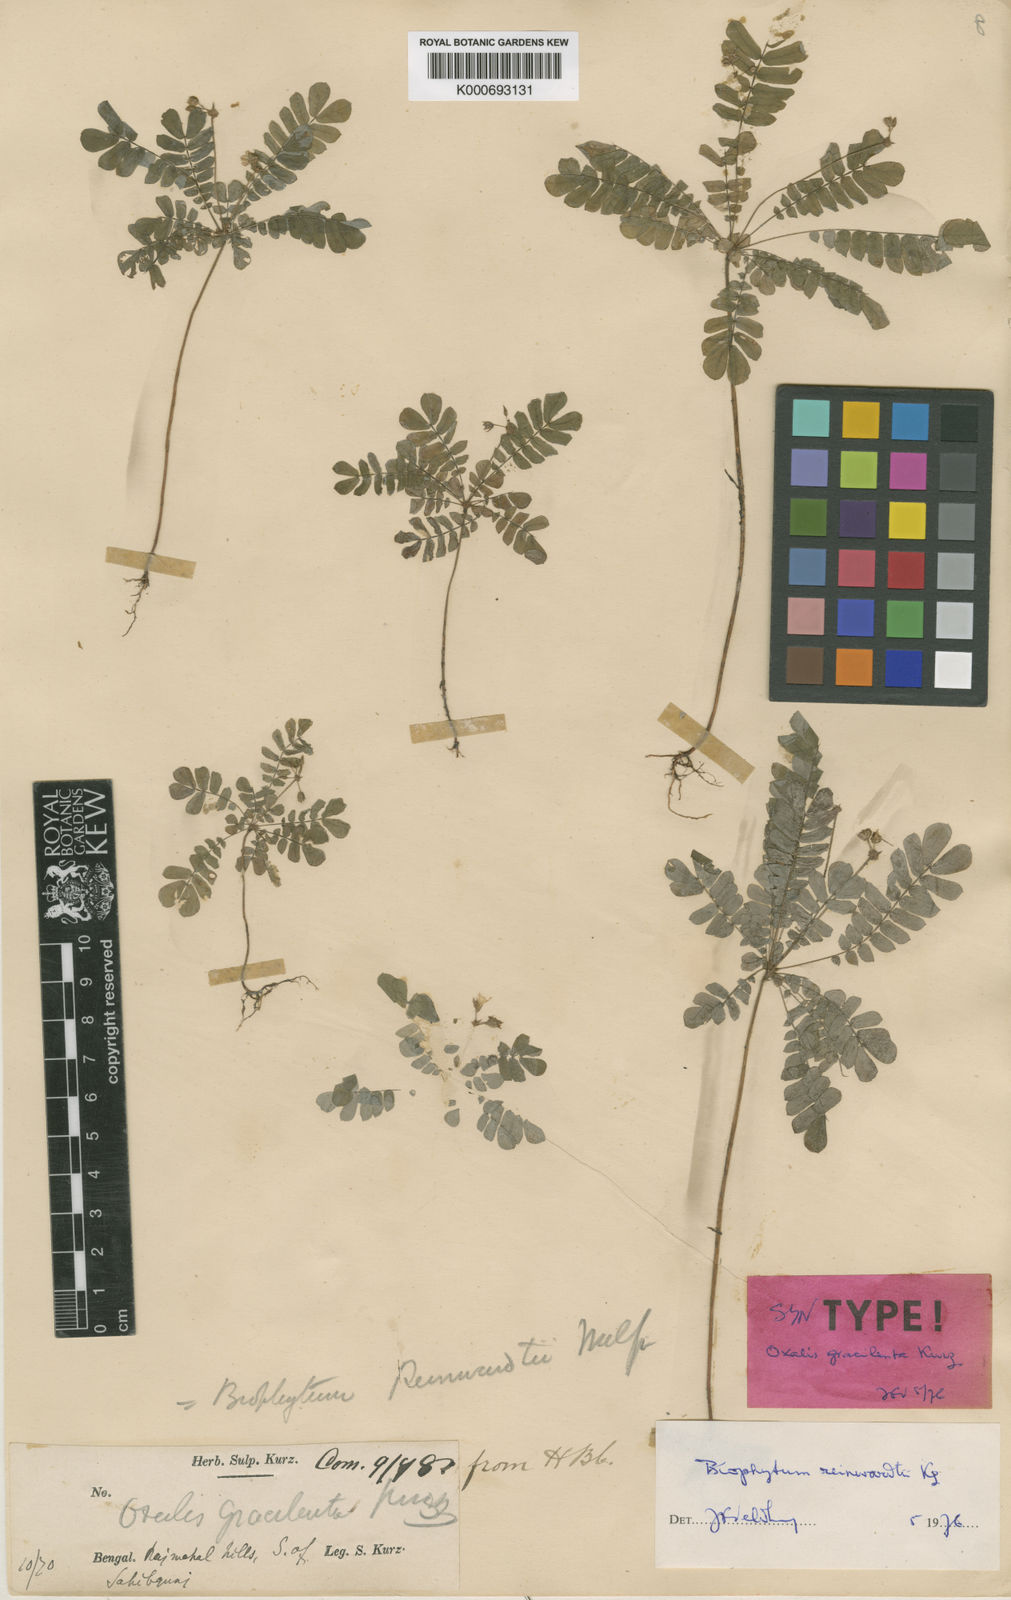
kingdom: Plantae
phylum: Tracheophyta
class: Magnoliopsida
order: Oxalidales
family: Oxalidaceae
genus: Biophytum
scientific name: Biophytum reinwardtii
